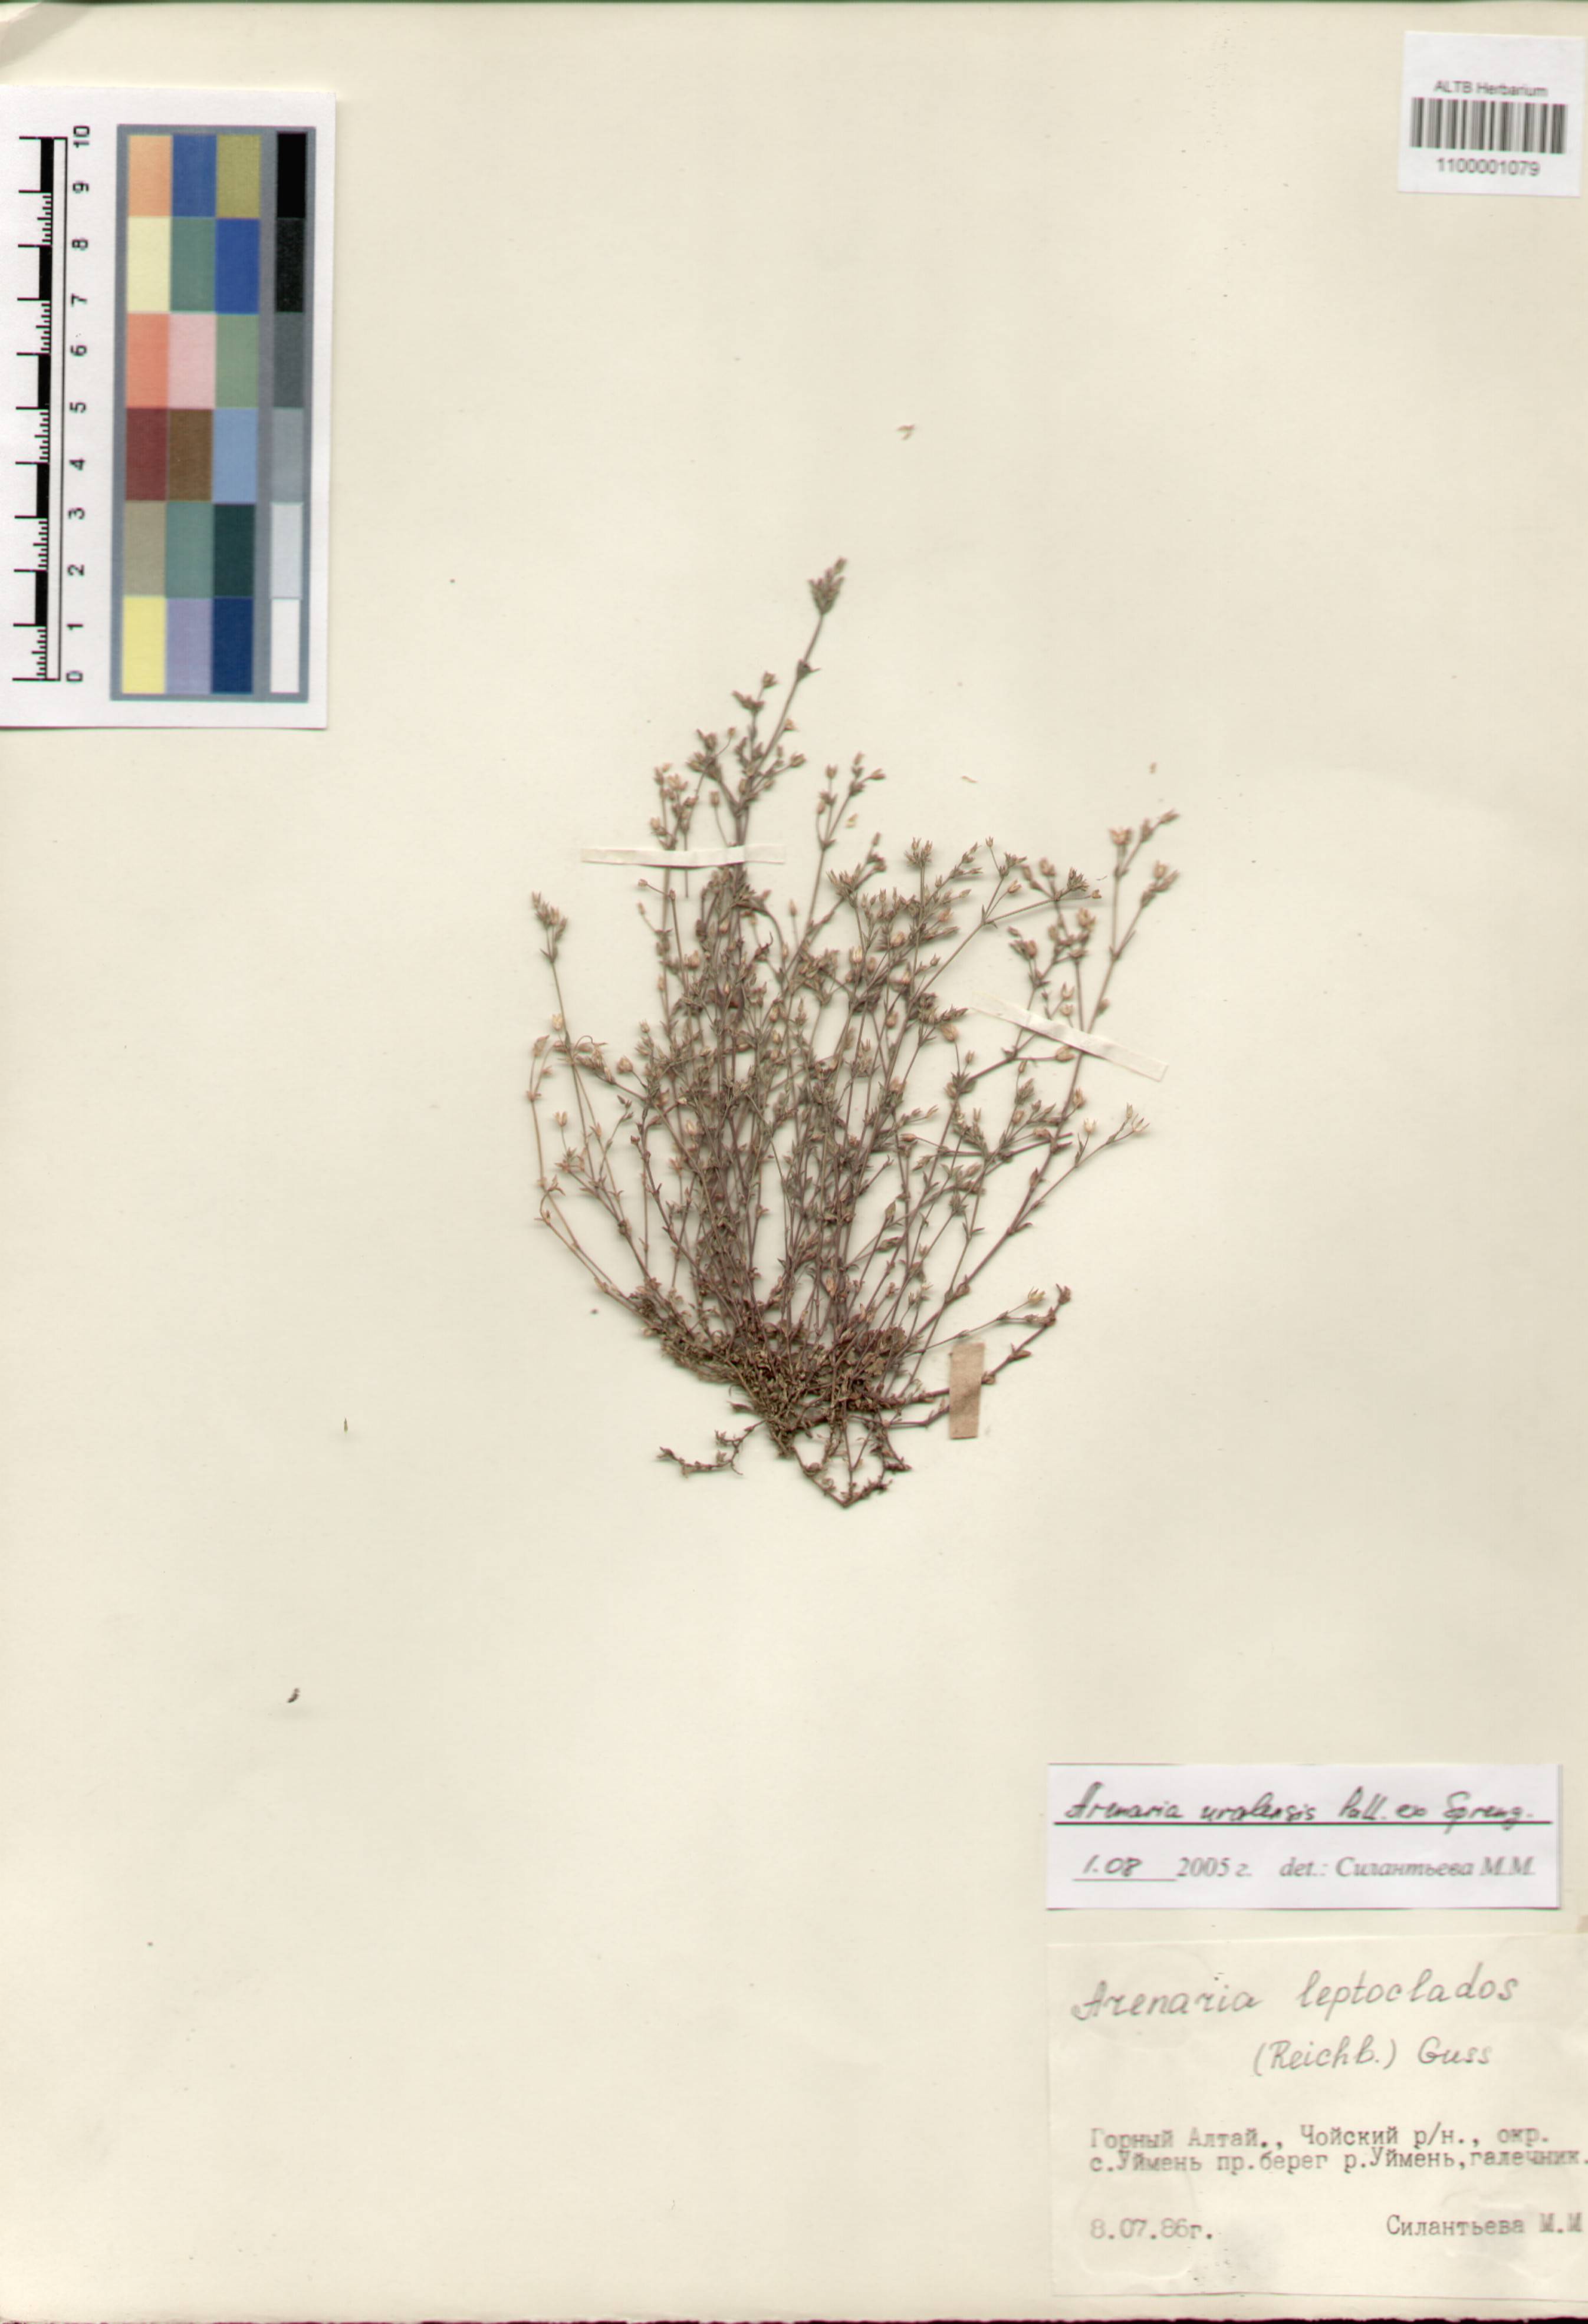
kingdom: Plantae
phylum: Tracheophyta
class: Magnoliopsida
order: Caryophyllales
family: Caryophyllaceae
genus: Arenaria
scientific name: Arenaria serpyllifolia
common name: Thyme-leaved sandwort
